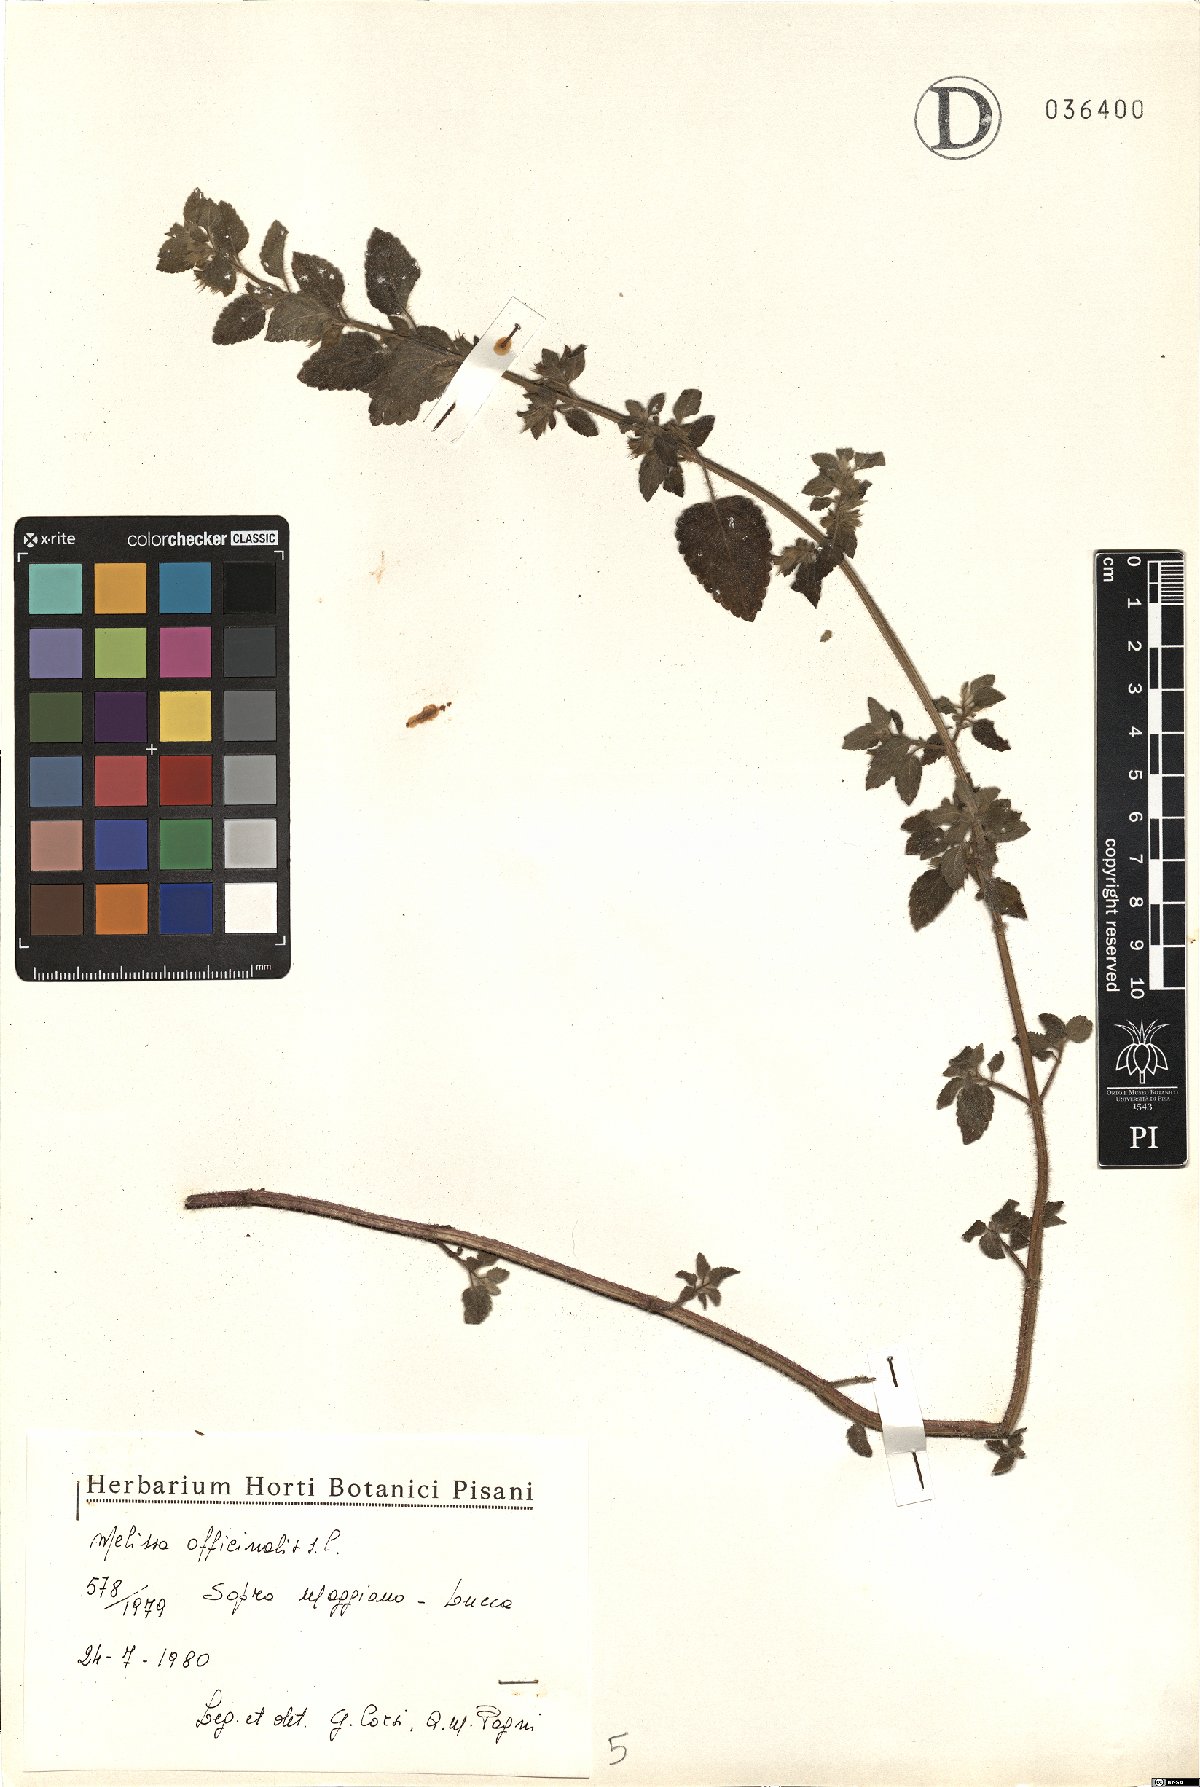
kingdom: Plantae
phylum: Tracheophyta
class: Magnoliopsida
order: Lamiales
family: Lamiaceae
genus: Melissa
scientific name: Melissa officinalis
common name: Balm
